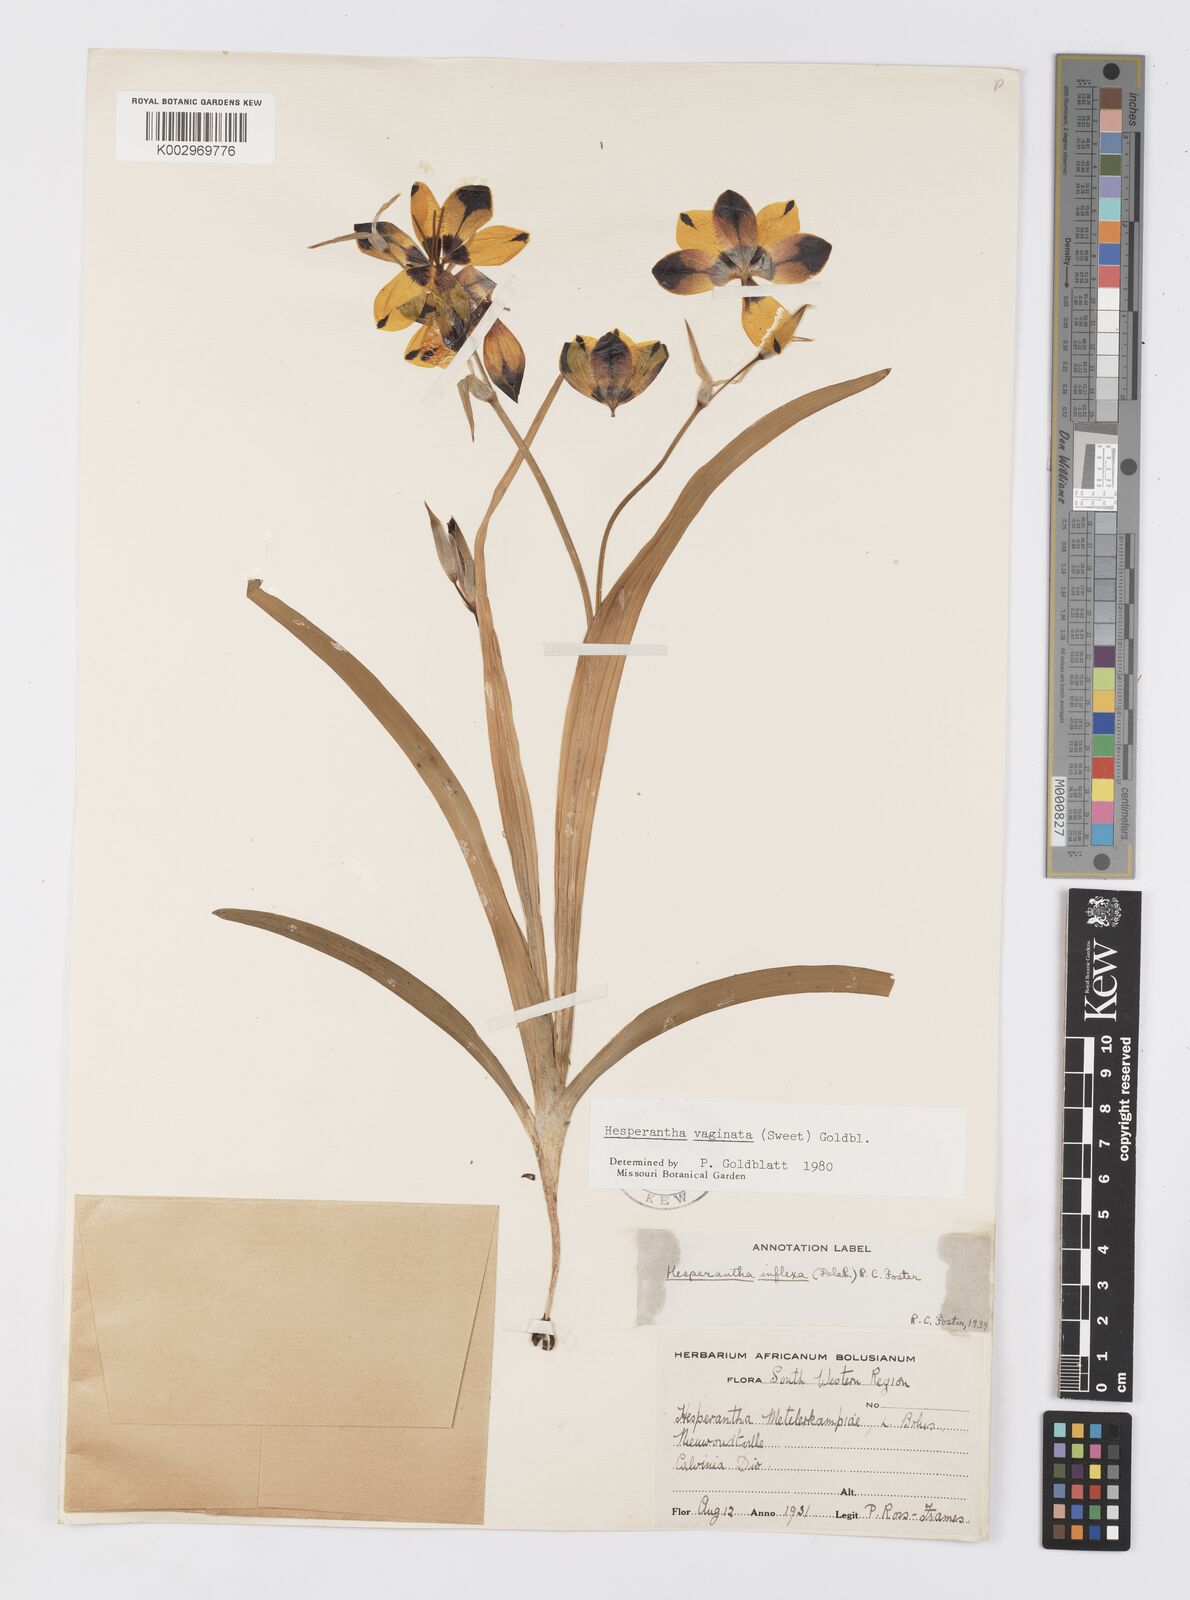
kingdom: Plantae
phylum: Tracheophyta
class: Liliopsida
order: Asparagales
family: Iridaceae
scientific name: Iridaceae
